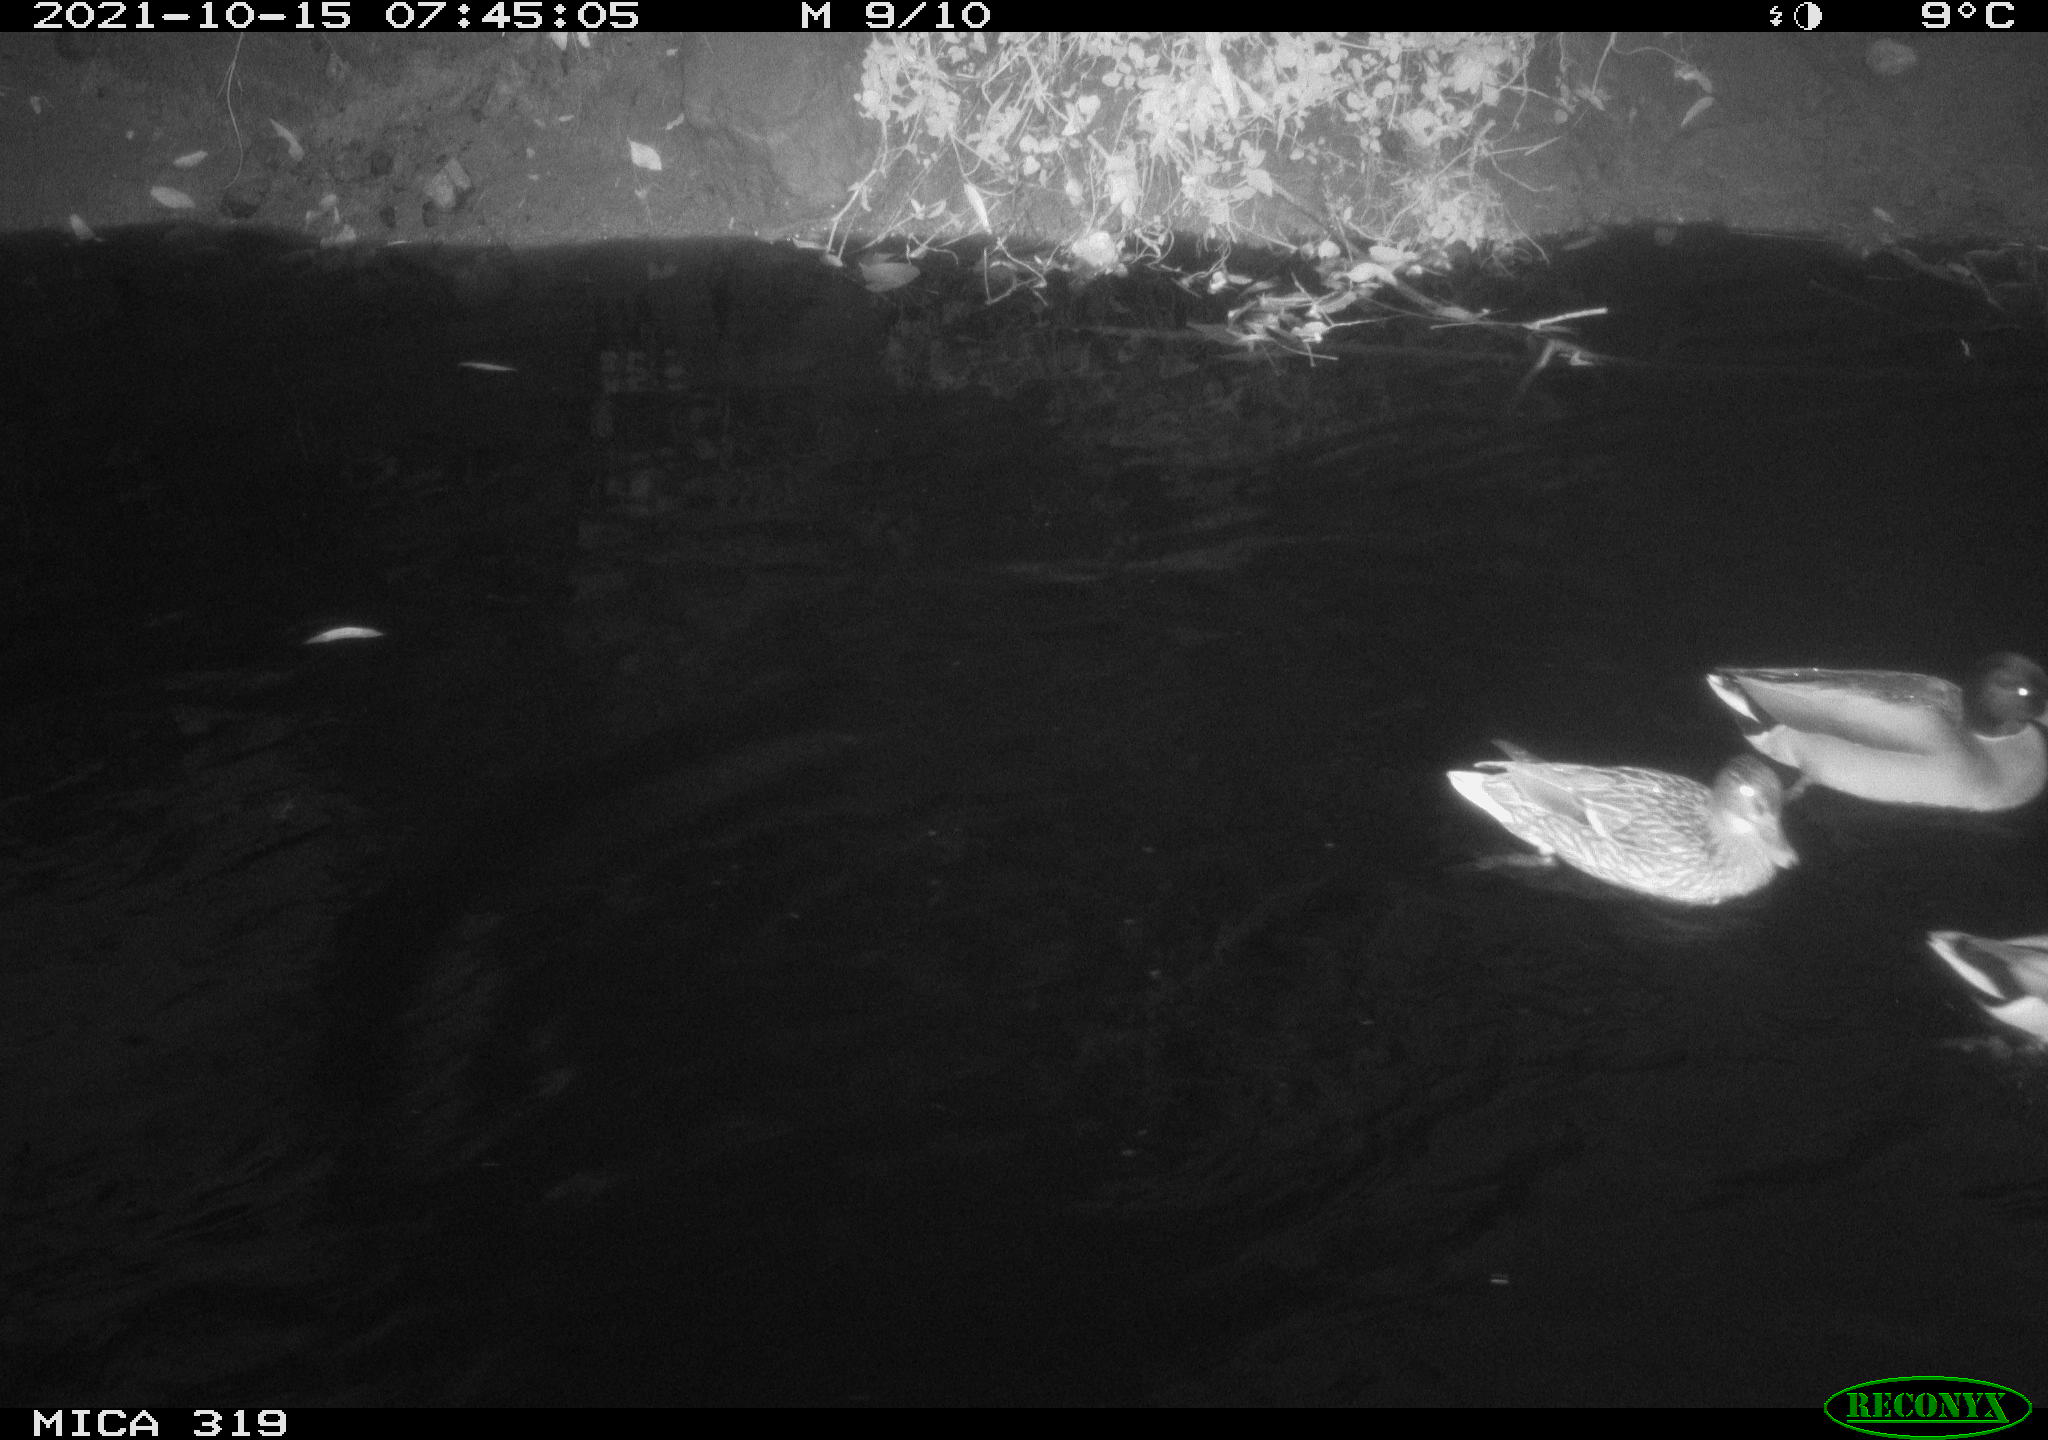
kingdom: Animalia
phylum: Chordata
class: Aves
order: Anseriformes
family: Anatidae
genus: Anas
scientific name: Anas platyrhynchos
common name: Mallard
